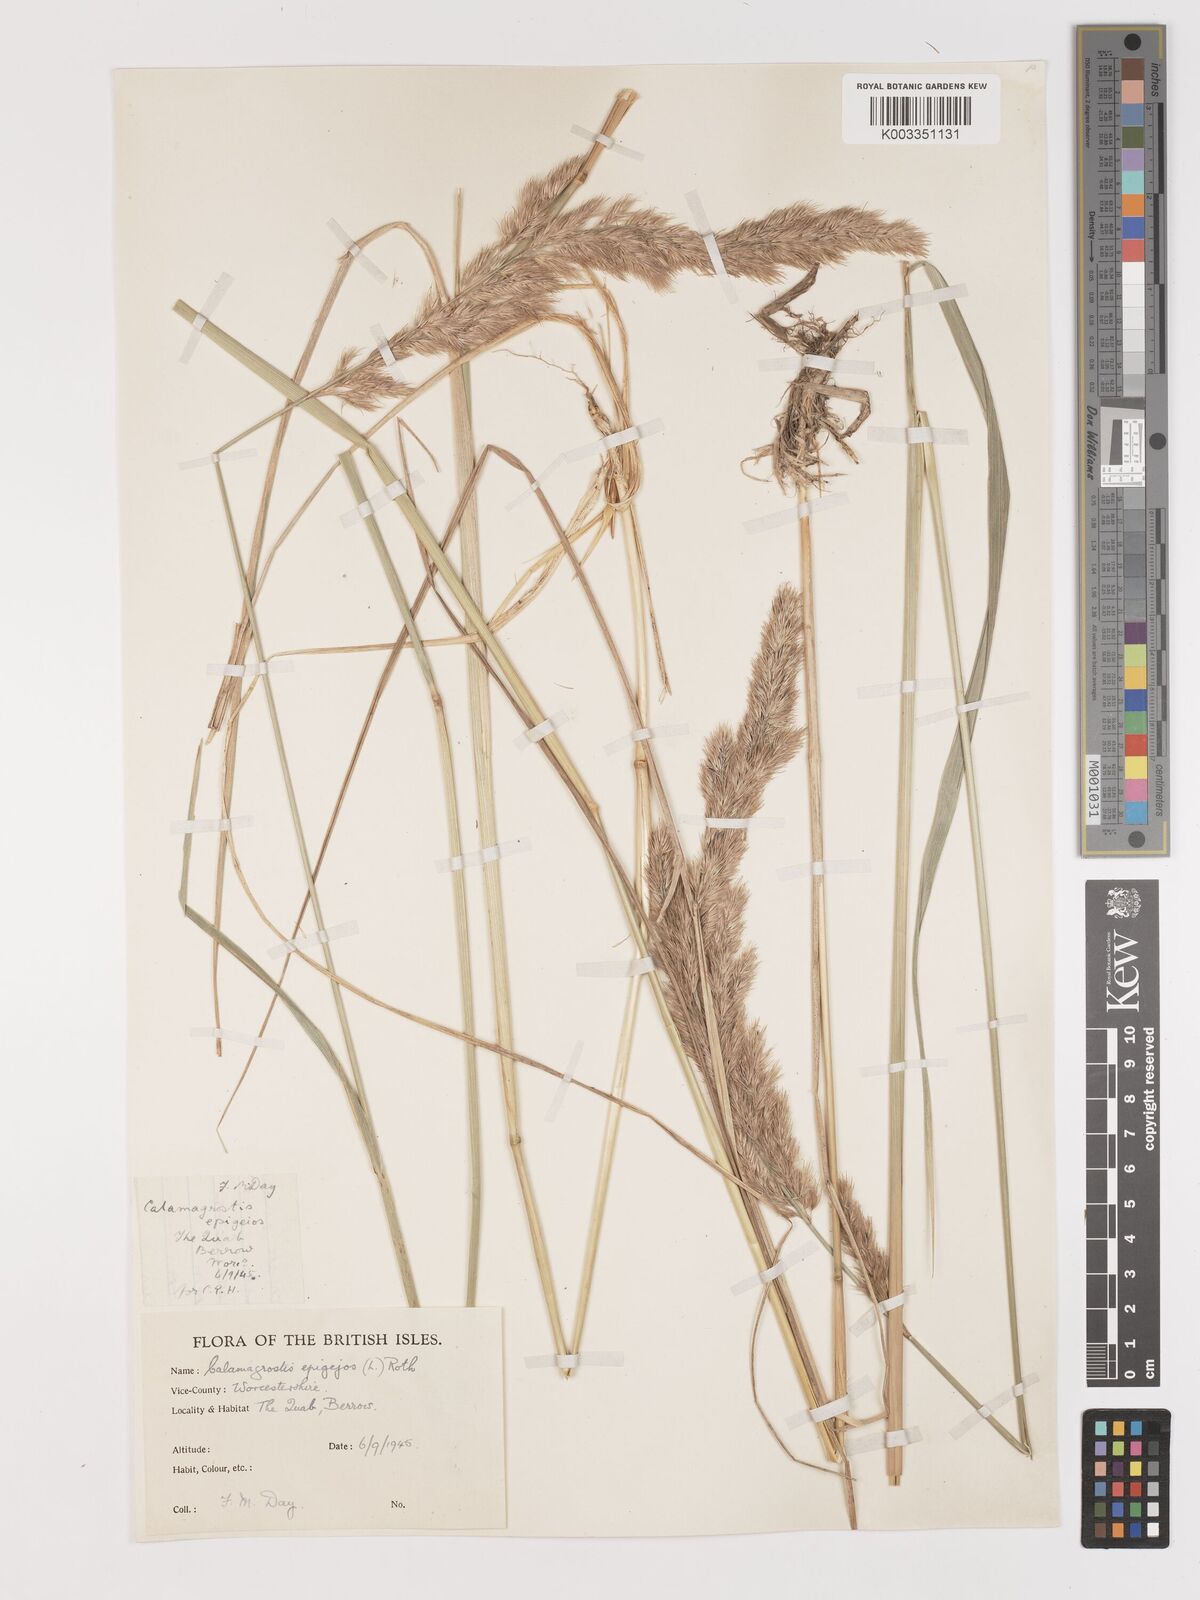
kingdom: Plantae
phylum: Tracheophyta
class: Liliopsida
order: Poales
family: Poaceae
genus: Calamagrostis
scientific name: Calamagrostis
